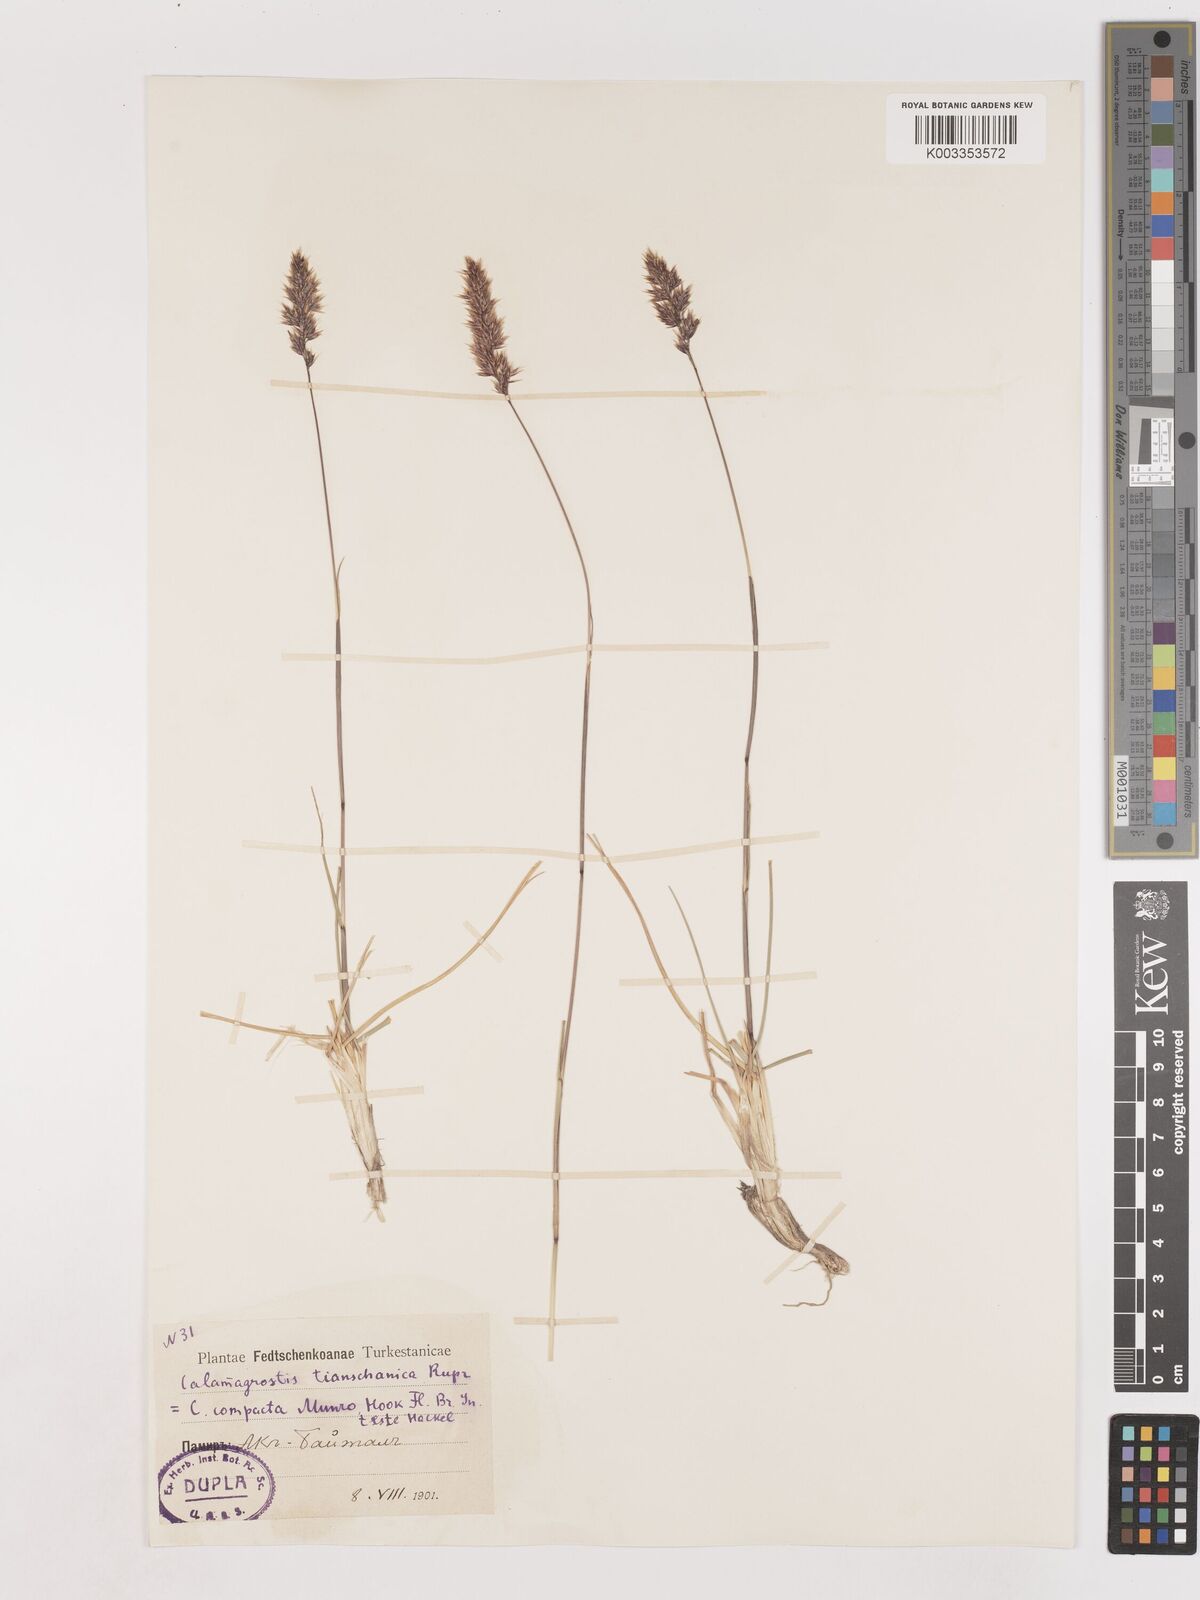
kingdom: Plantae
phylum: Tracheophyta
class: Liliopsida
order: Poales
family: Poaceae
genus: Calamagrostis
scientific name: Calamagrostis tianschanica
